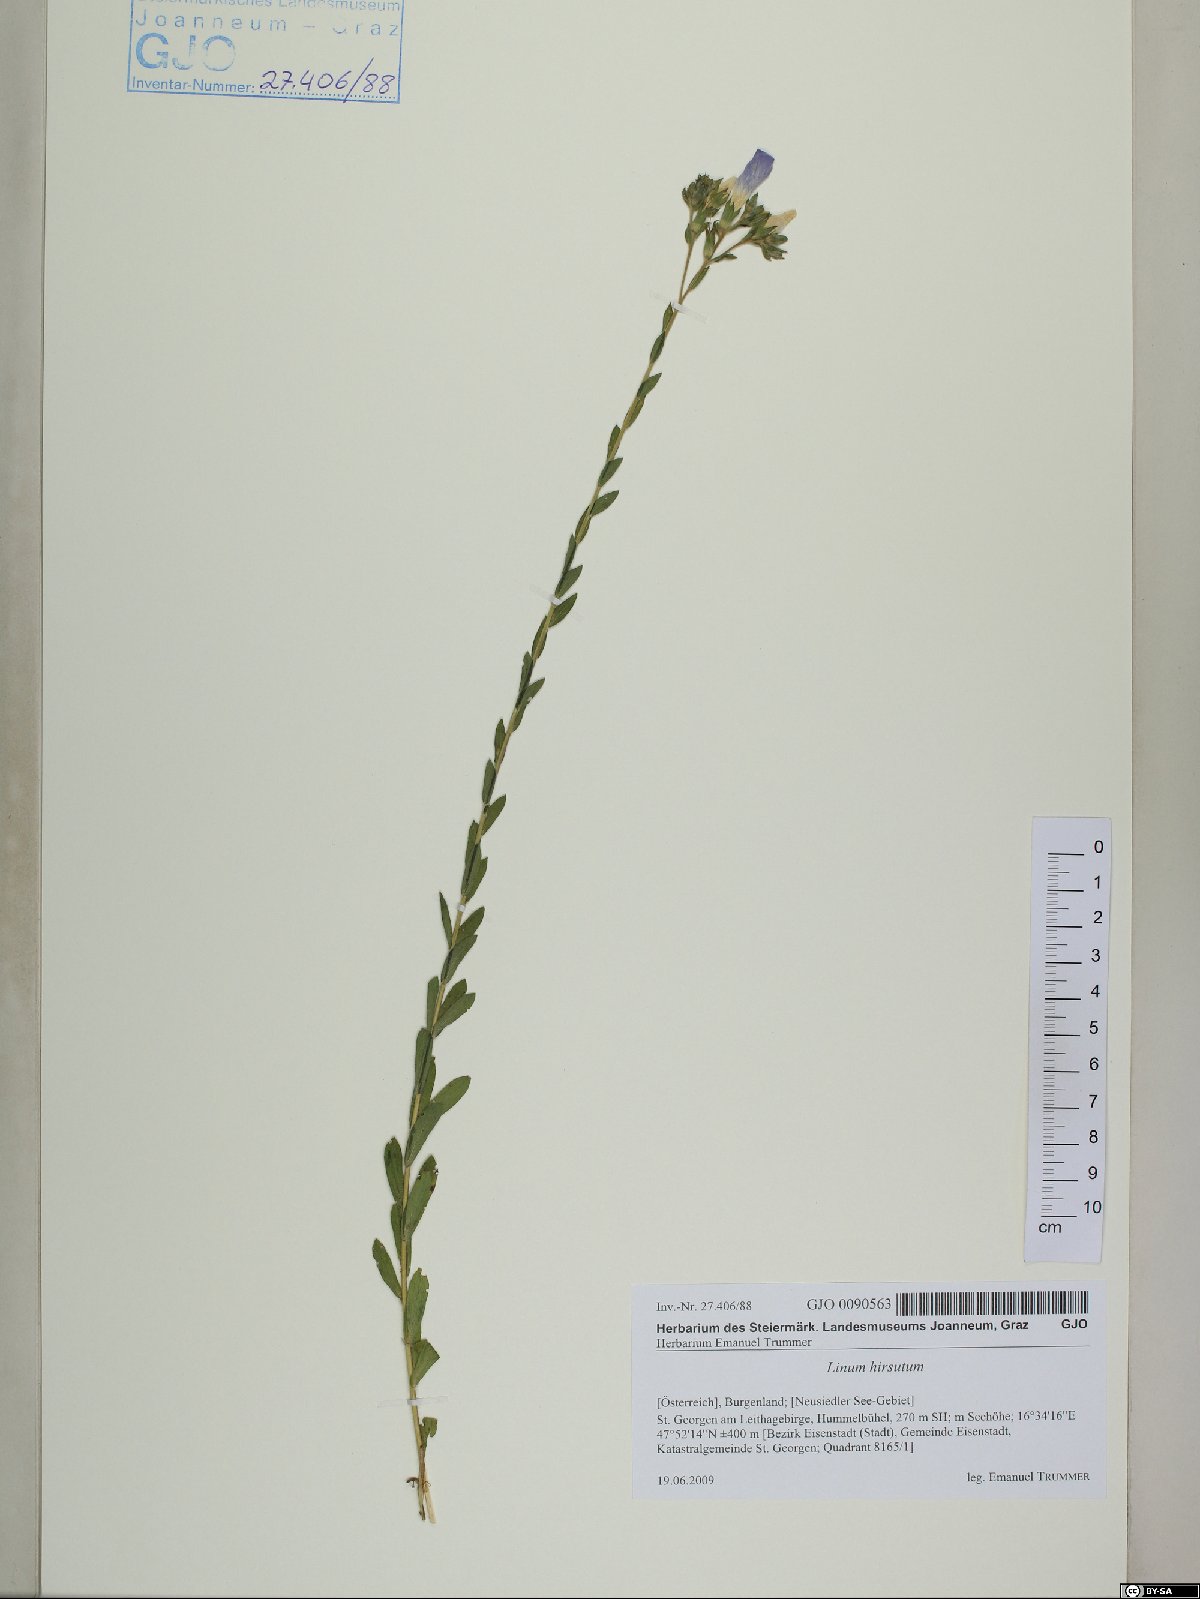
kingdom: Plantae
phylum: Tracheophyta
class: Magnoliopsida
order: Malpighiales
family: Linaceae
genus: Linum
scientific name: Linum hirsutum
